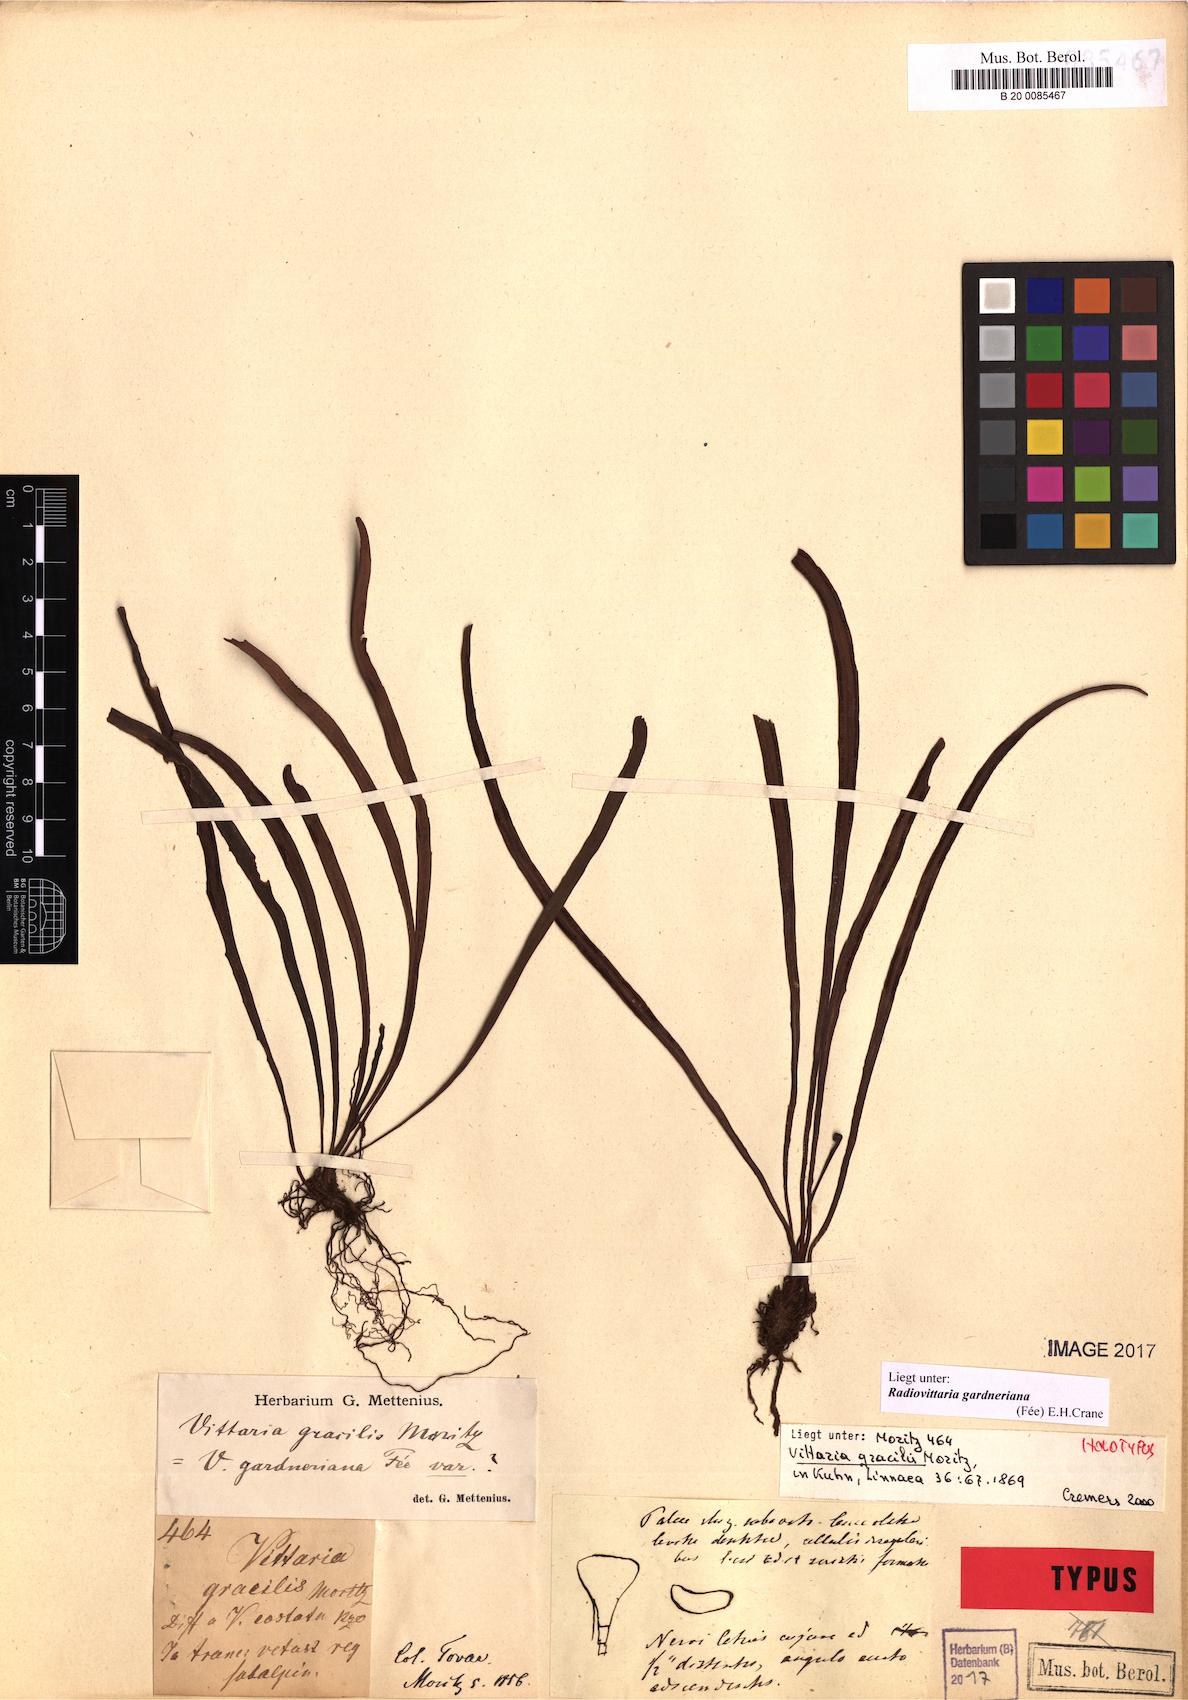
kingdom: Plantae
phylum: Tracheophyta
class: Polypodiopsida
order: Polypodiales
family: Pteridaceae
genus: Radiovittaria
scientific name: Radiovittaria gardneriana
